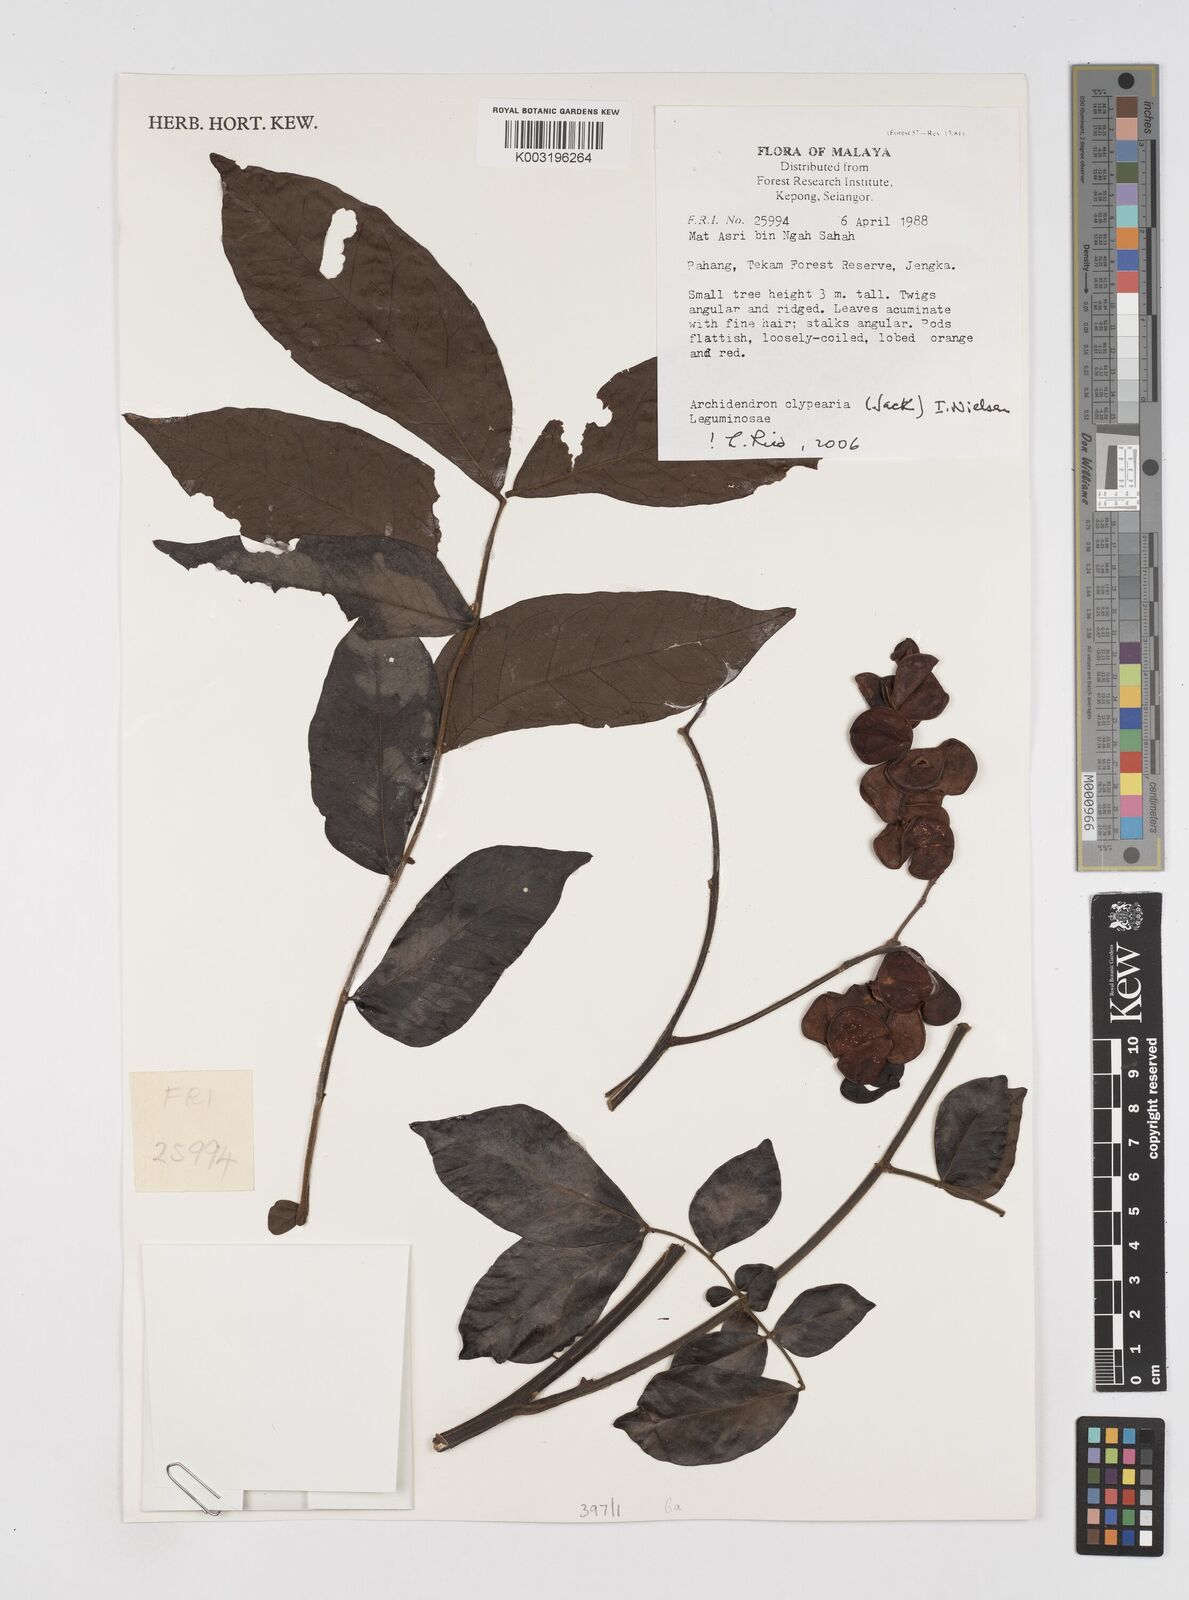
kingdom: Plantae
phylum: Tracheophyta
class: Magnoliopsida
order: Fabales
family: Fabaceae
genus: Archidendron
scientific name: Archidendron clypearia
